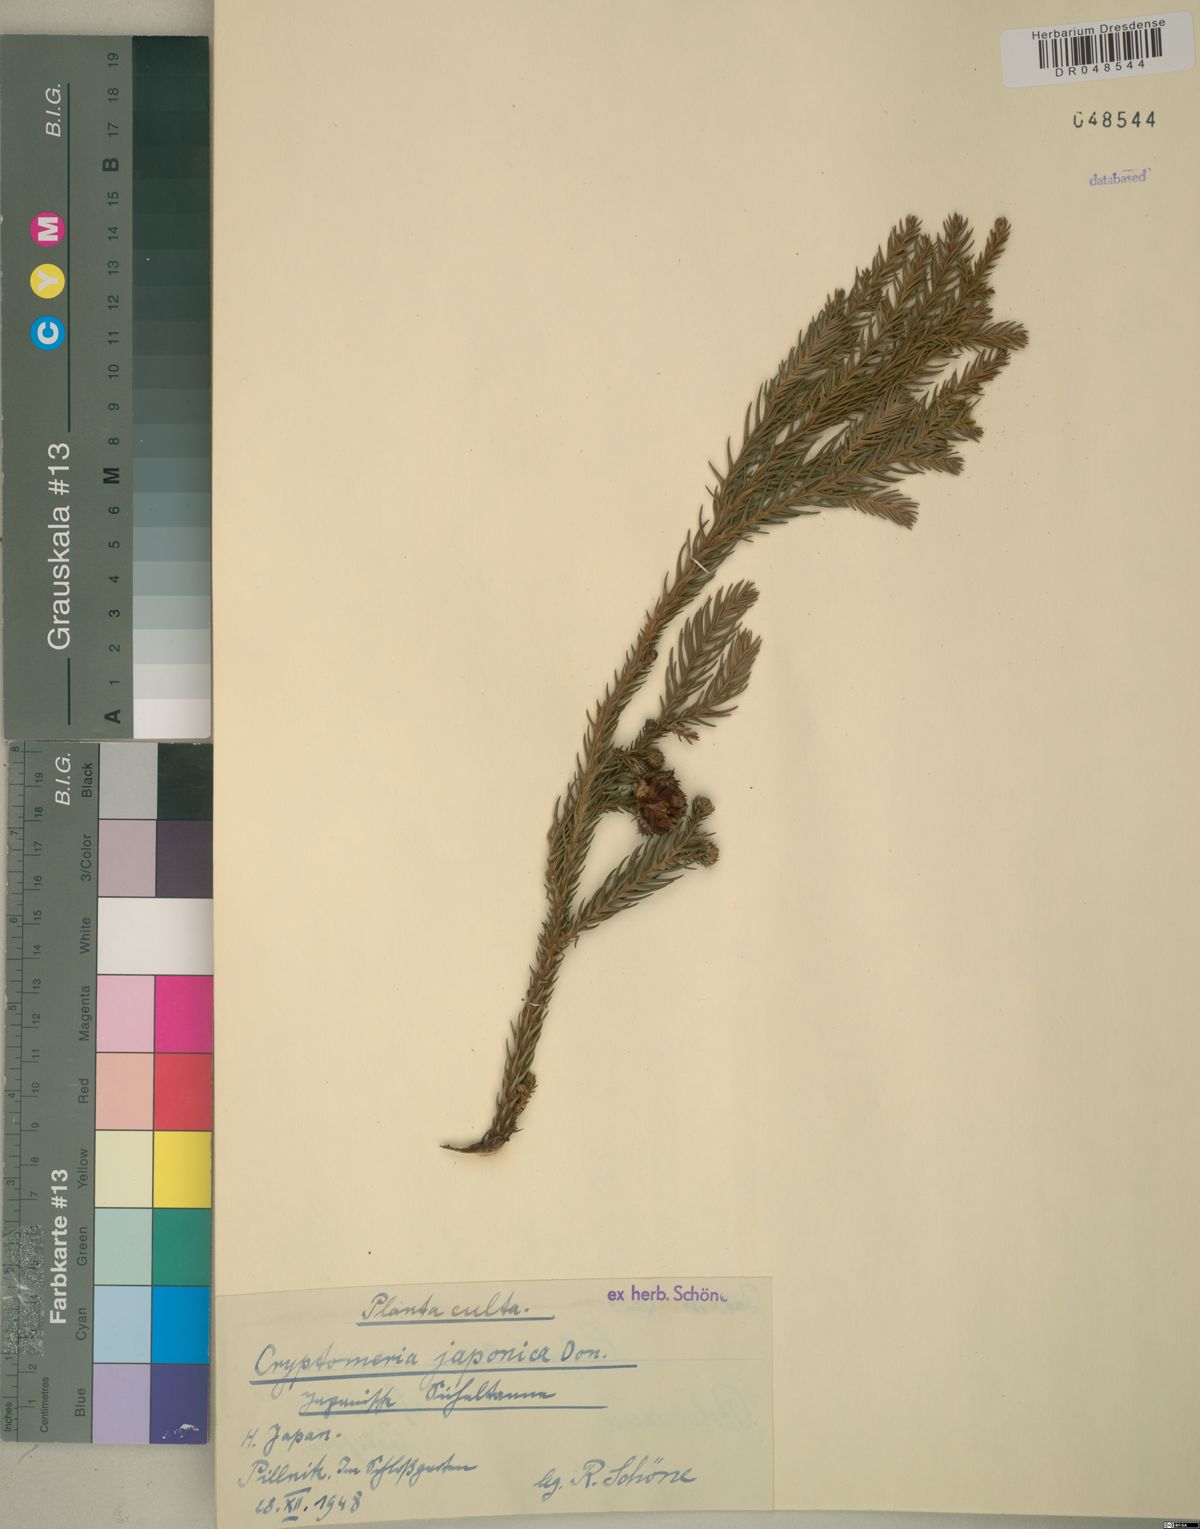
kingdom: Plantae
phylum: Tracheophyta
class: Pinopsida
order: Pinales
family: Cupressaceae
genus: Cryptomeria
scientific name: Cryptomeria japonica
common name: Japanese cedar
